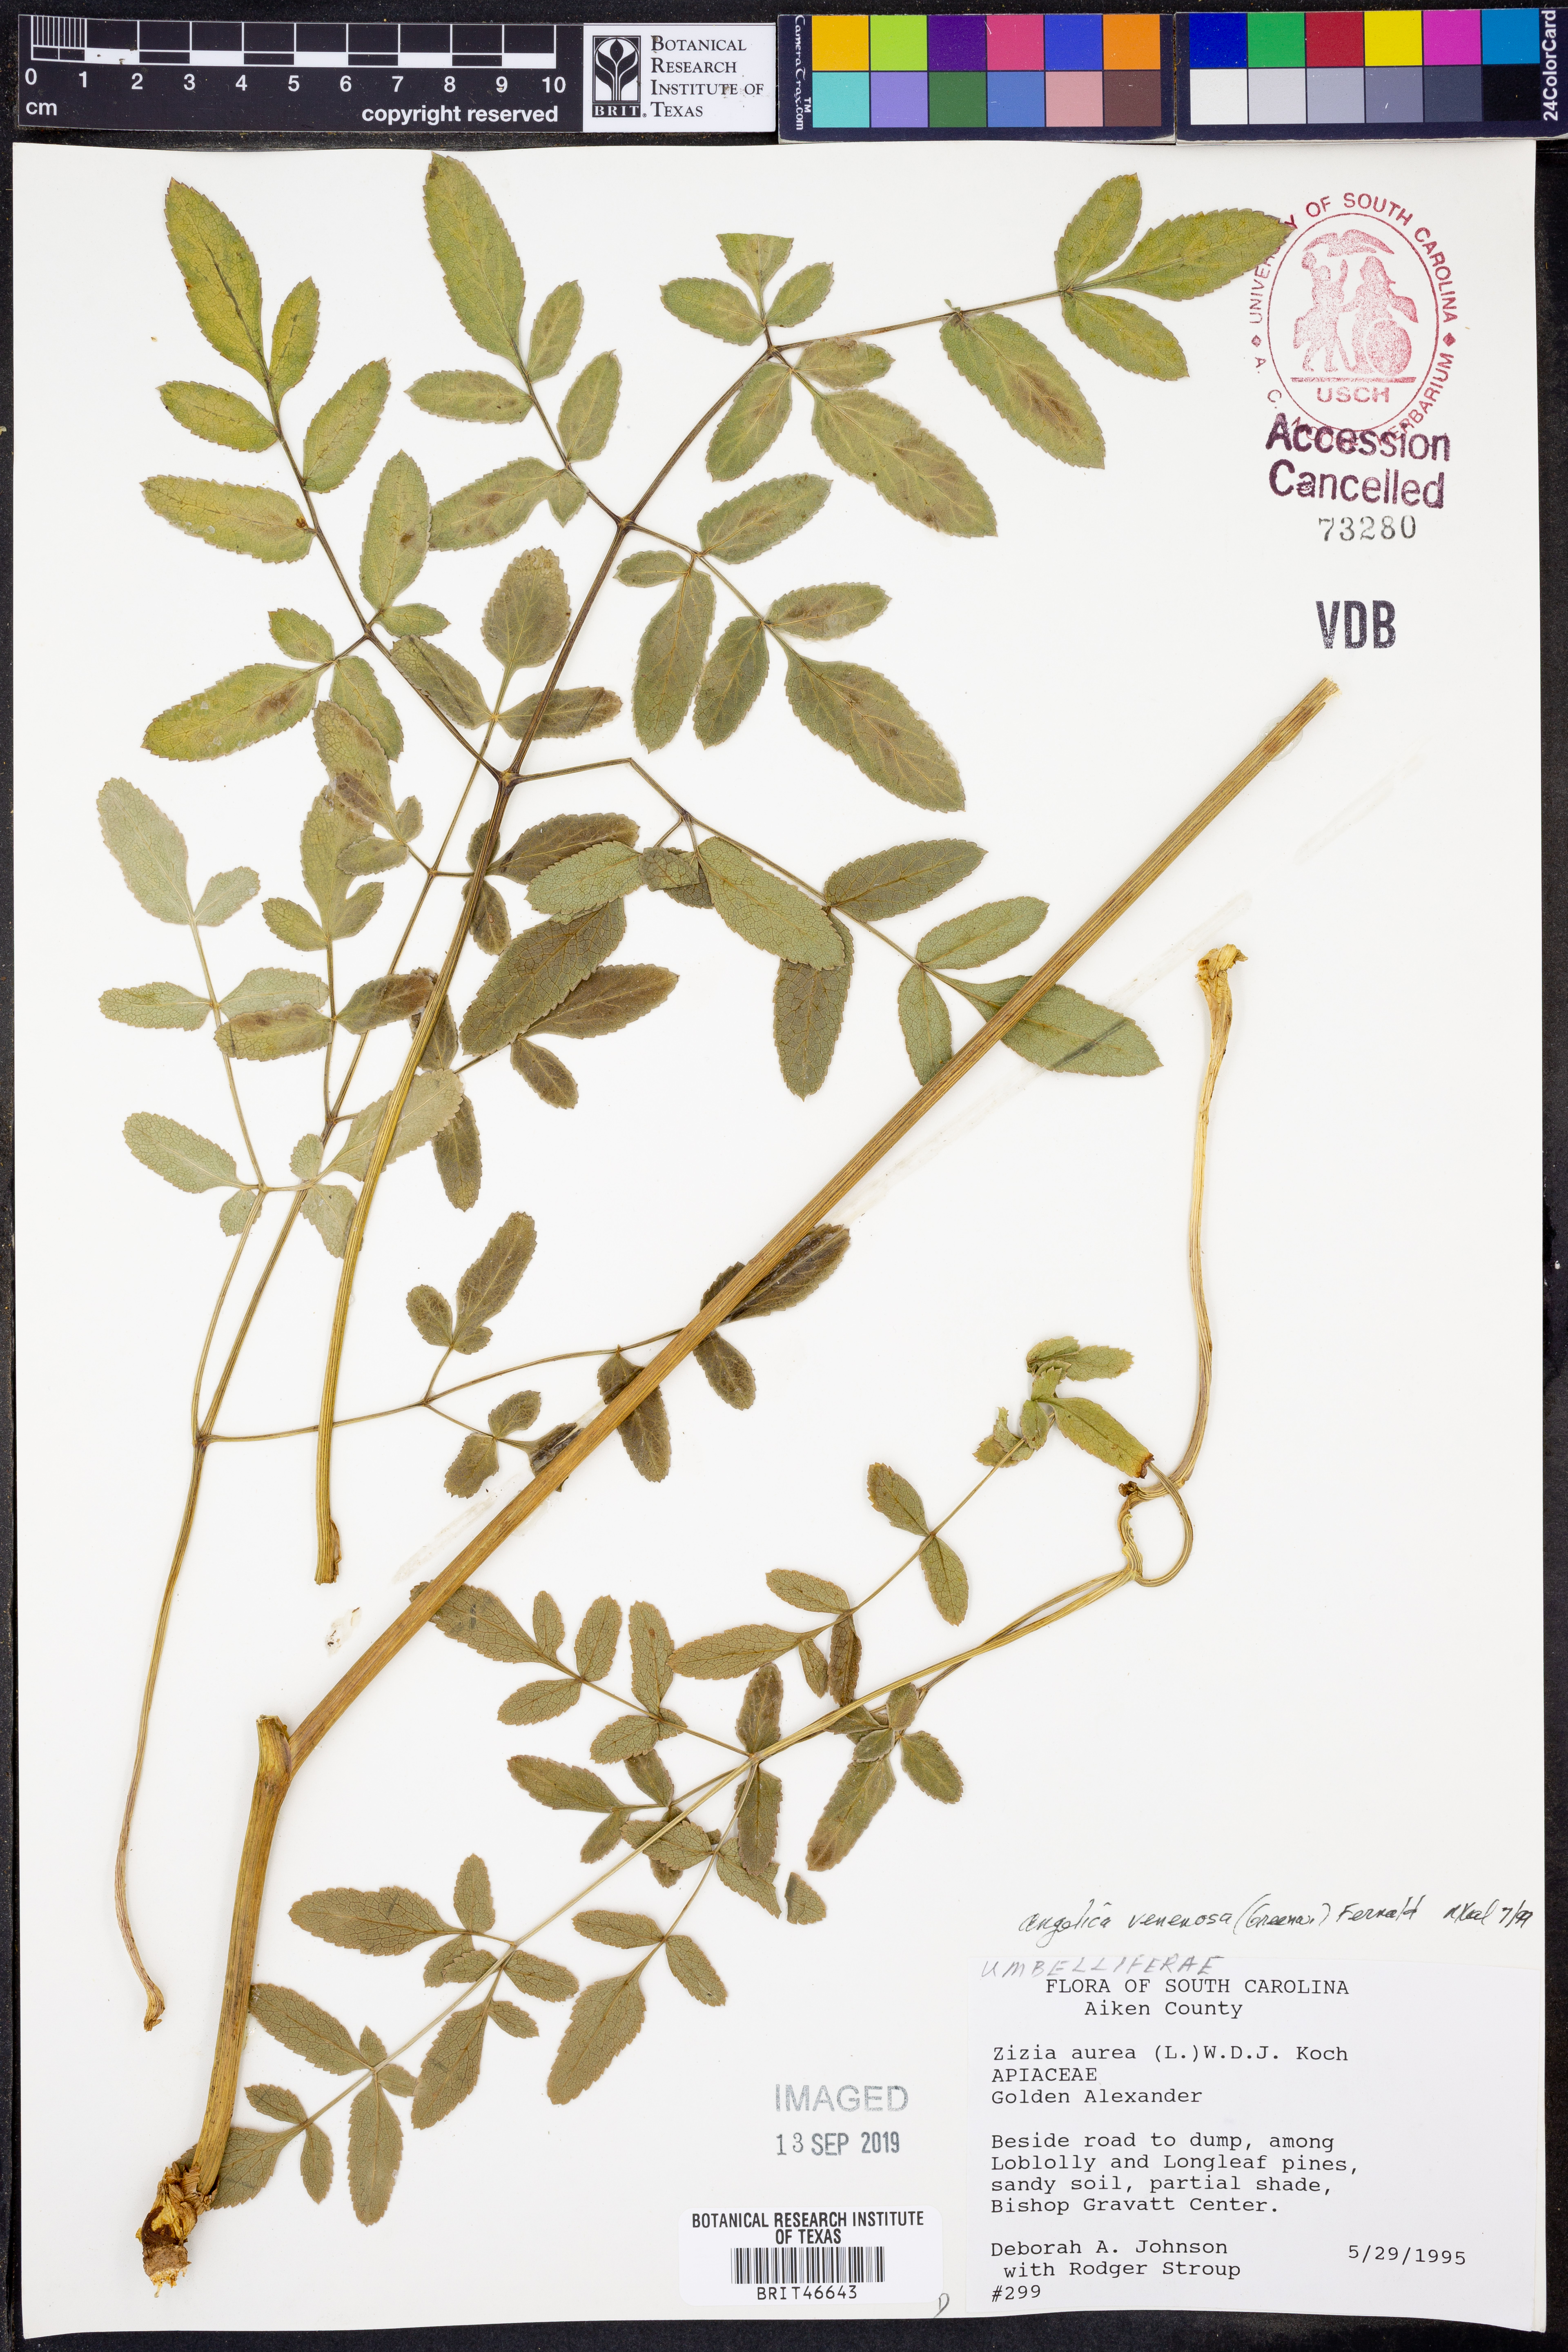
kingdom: Plantae
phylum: Tracheophyta
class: Magnoliopsida
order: Apiales
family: Apiaceae
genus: Angelica
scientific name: Angelica venenosa
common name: Hairy angelica
